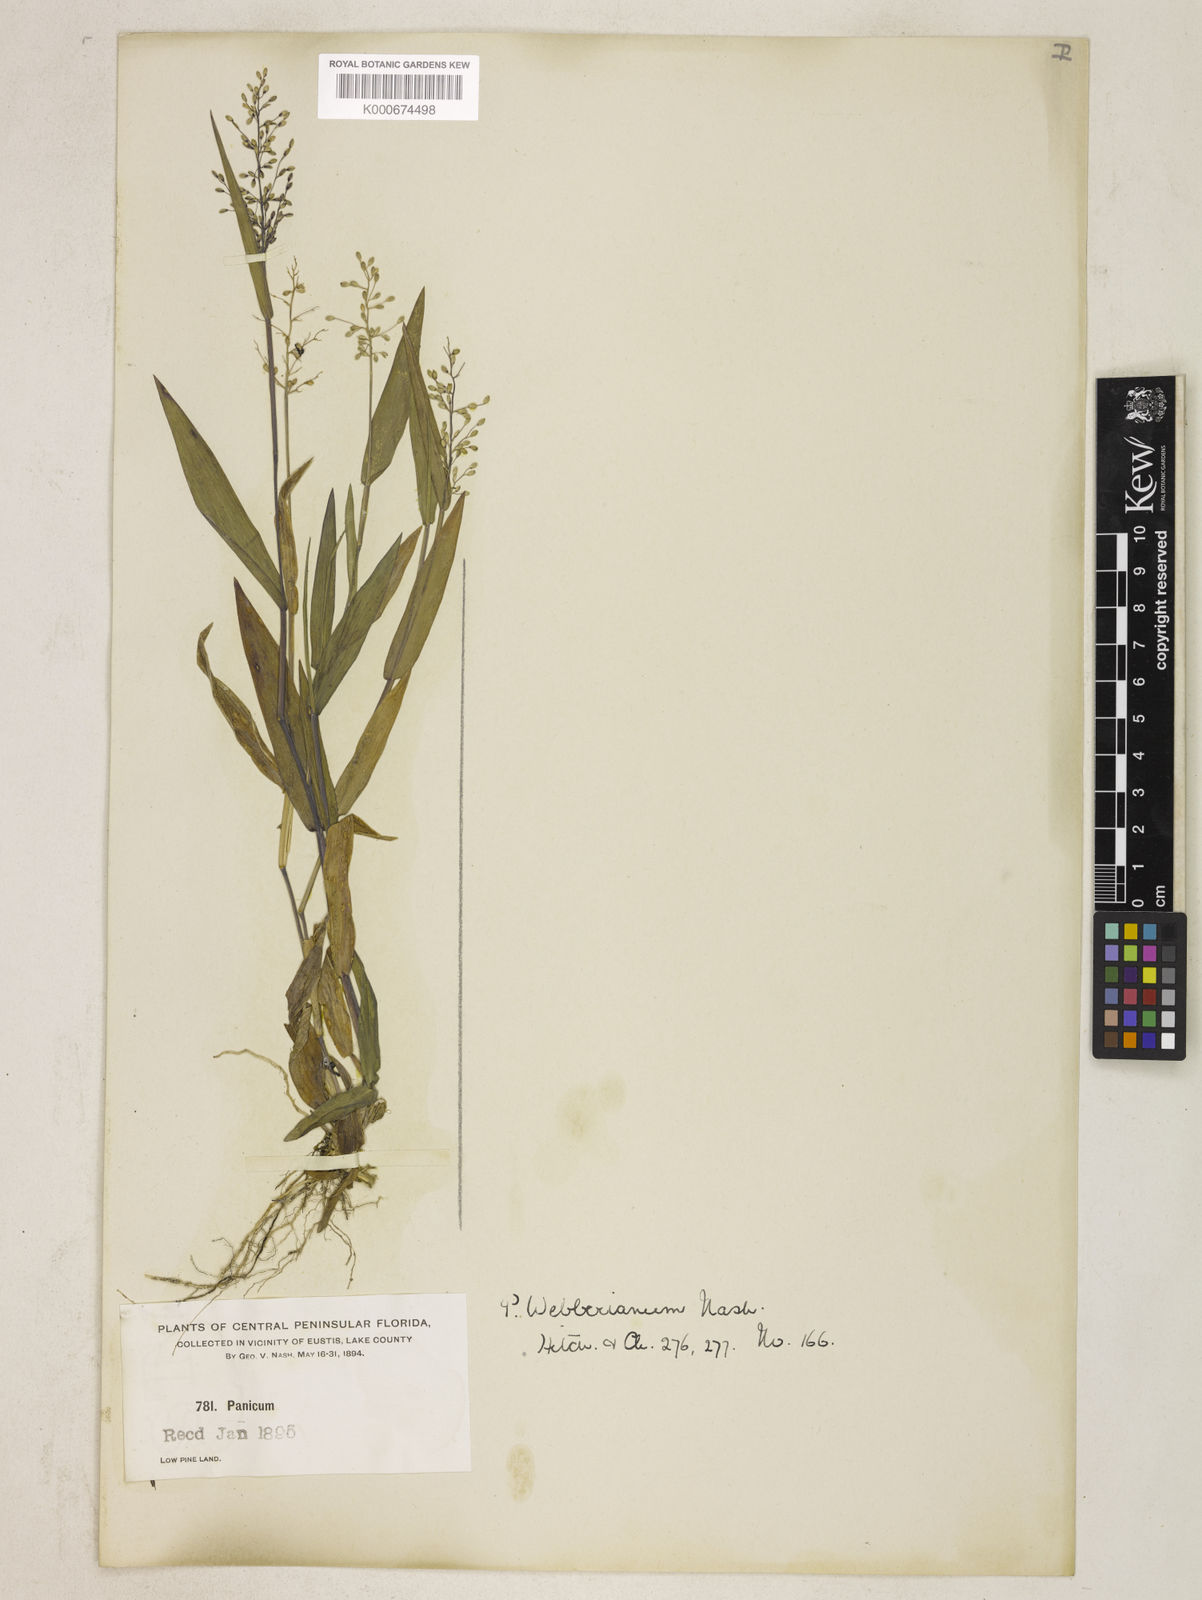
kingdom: Plantae
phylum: Tracheophyta
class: Liliopsida
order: Poales
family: Poaceae
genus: Panicum
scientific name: Panicum
